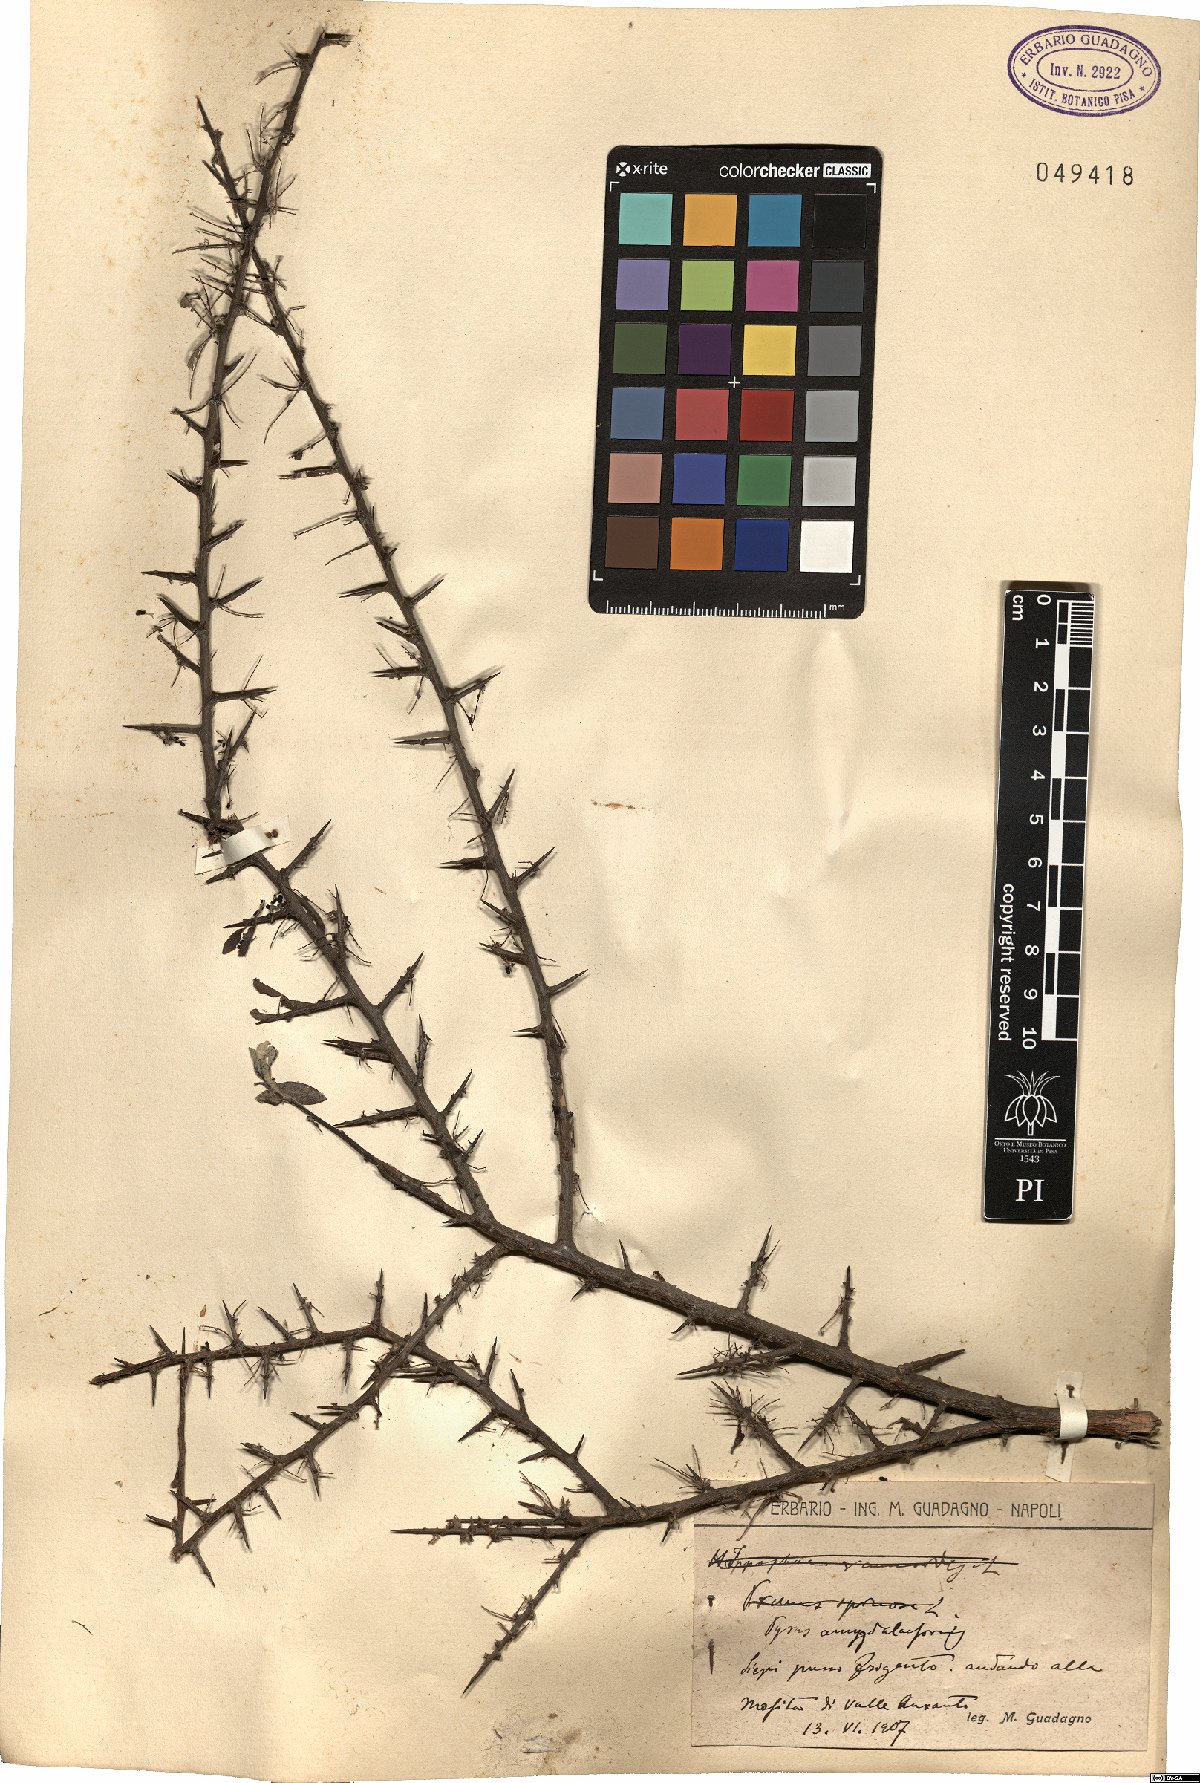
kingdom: Plantae
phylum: Tracheophyta
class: Magnoliopsida
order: Rosales
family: Rosaceae
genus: Pyrus
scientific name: Pyrus spinosa
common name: Almond-leaf pear
